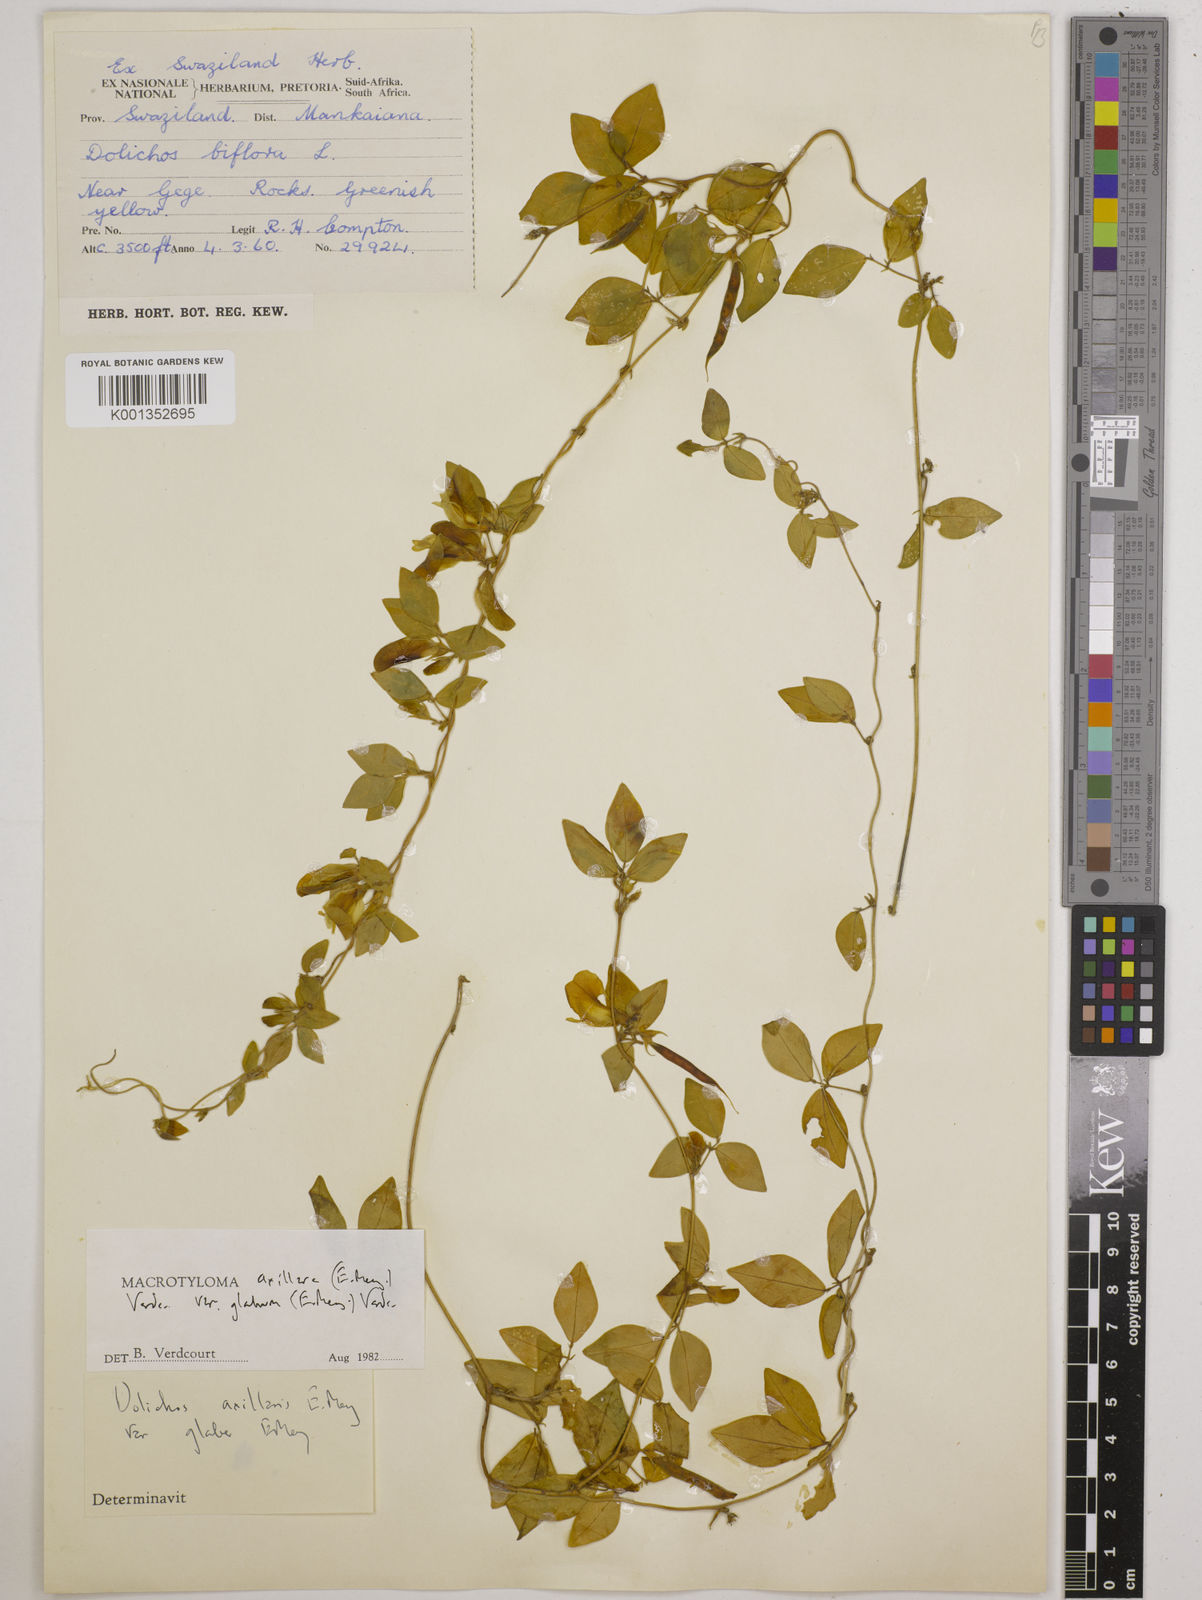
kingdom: Plantae
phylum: Tracheophyta
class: Magnoliopsida
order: Fabales
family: Fabaceae
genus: Macrotyloma
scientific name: Macrotyloma
